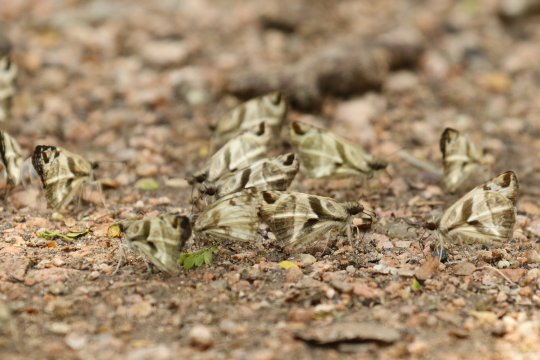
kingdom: Animalia
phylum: Arthropoda
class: Insecta
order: Lepidoptera
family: Hesperiidae
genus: Heliopetes
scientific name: Heliopetes laviana
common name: Laviana White-Skipper
